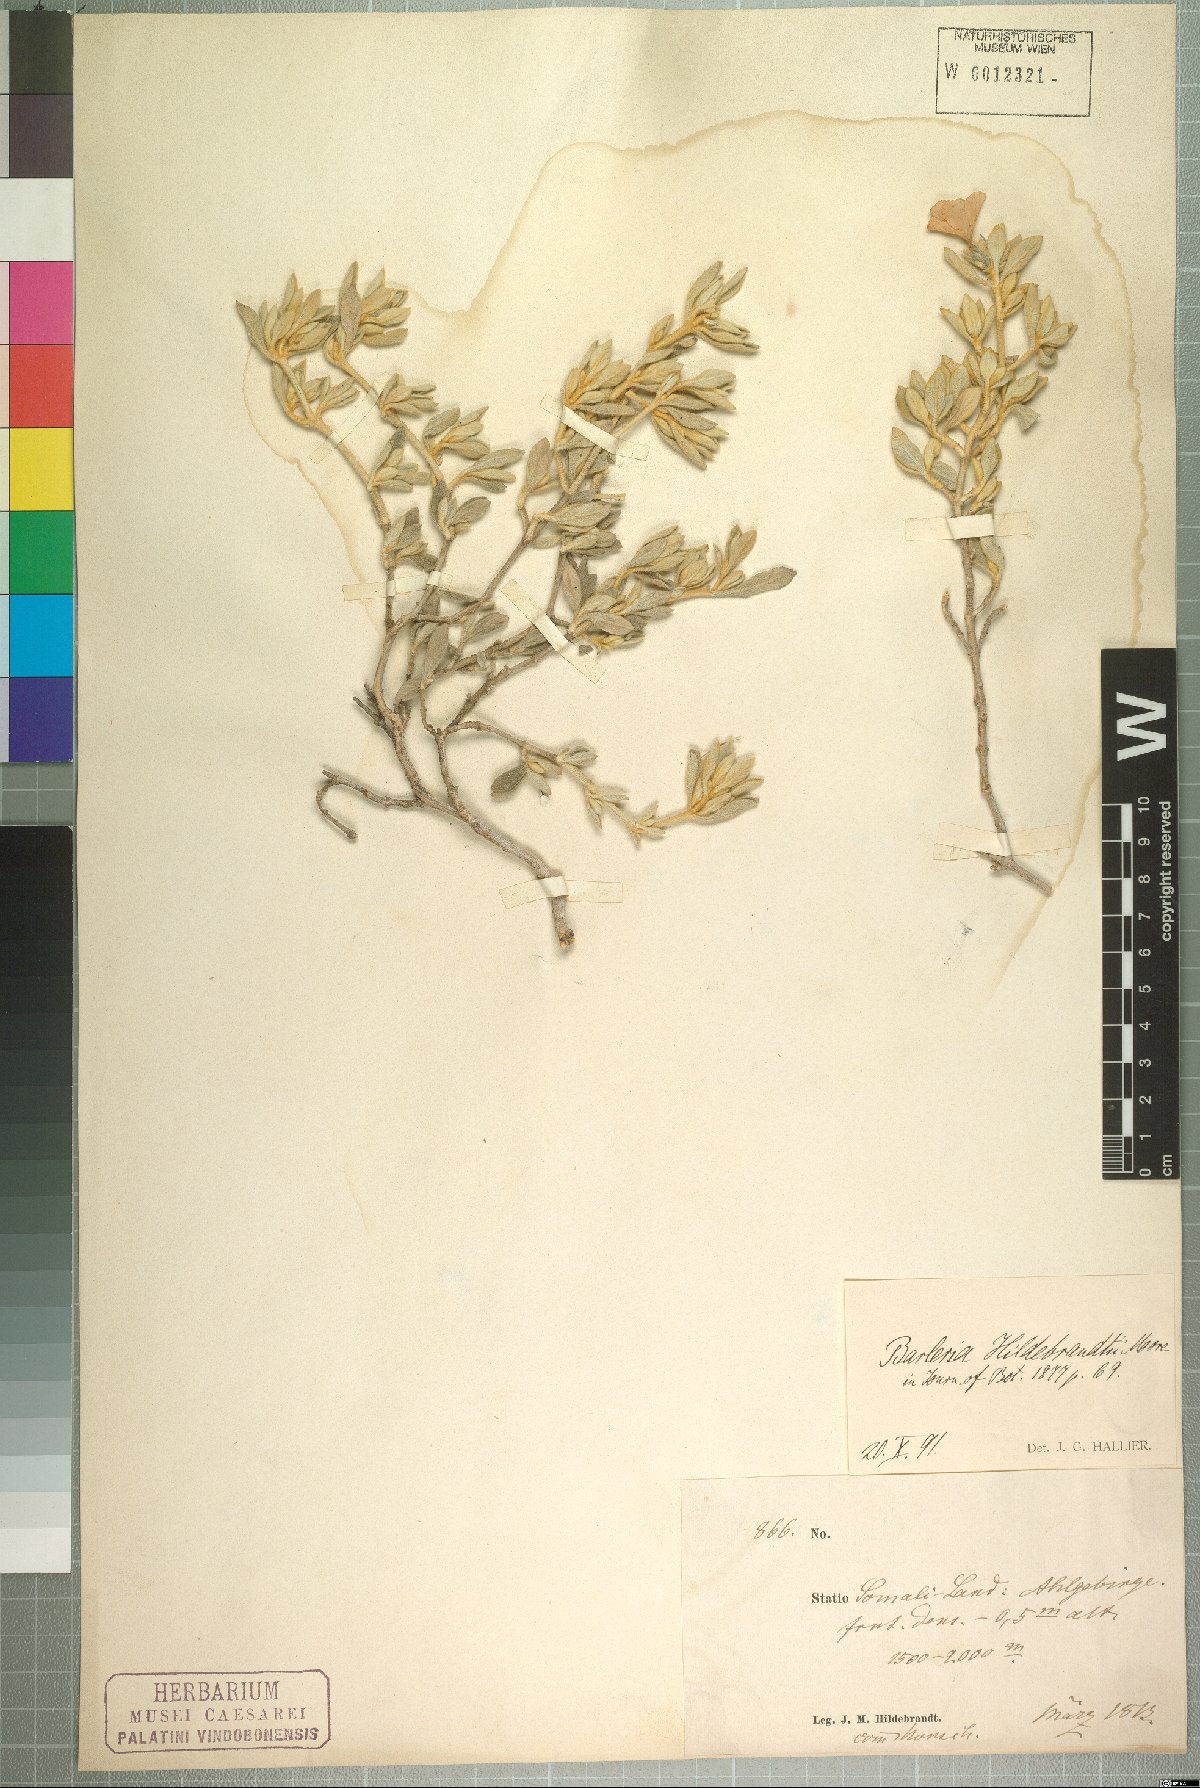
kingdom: Plantae
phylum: Tracheophyta
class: Magnoliopsida
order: Lamiales
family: Acanthaceae
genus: Barleria
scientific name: Barleria hildebrandtii
